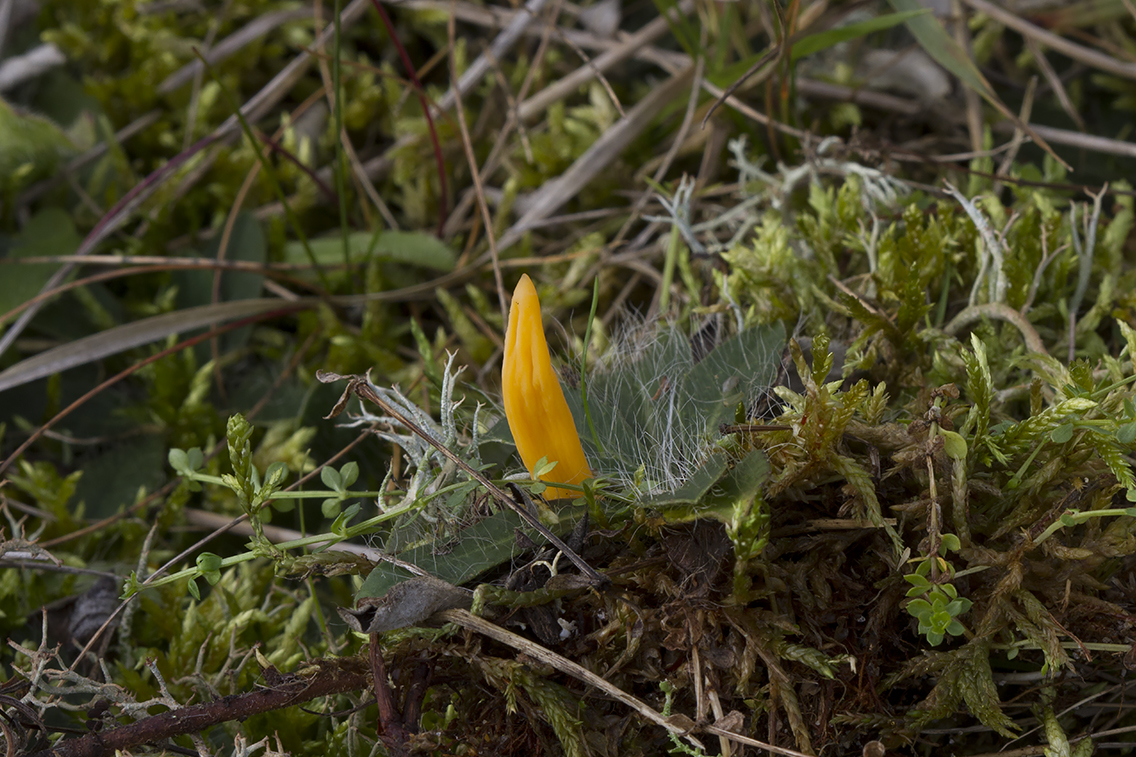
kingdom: Fungi
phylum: Basidiomycota
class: Agaricomycetes
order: Agaricales
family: Clavariaceae
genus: Clavulinopsis
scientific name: Clavulinopsis luteoalba
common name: abrikos-køllesvamp
